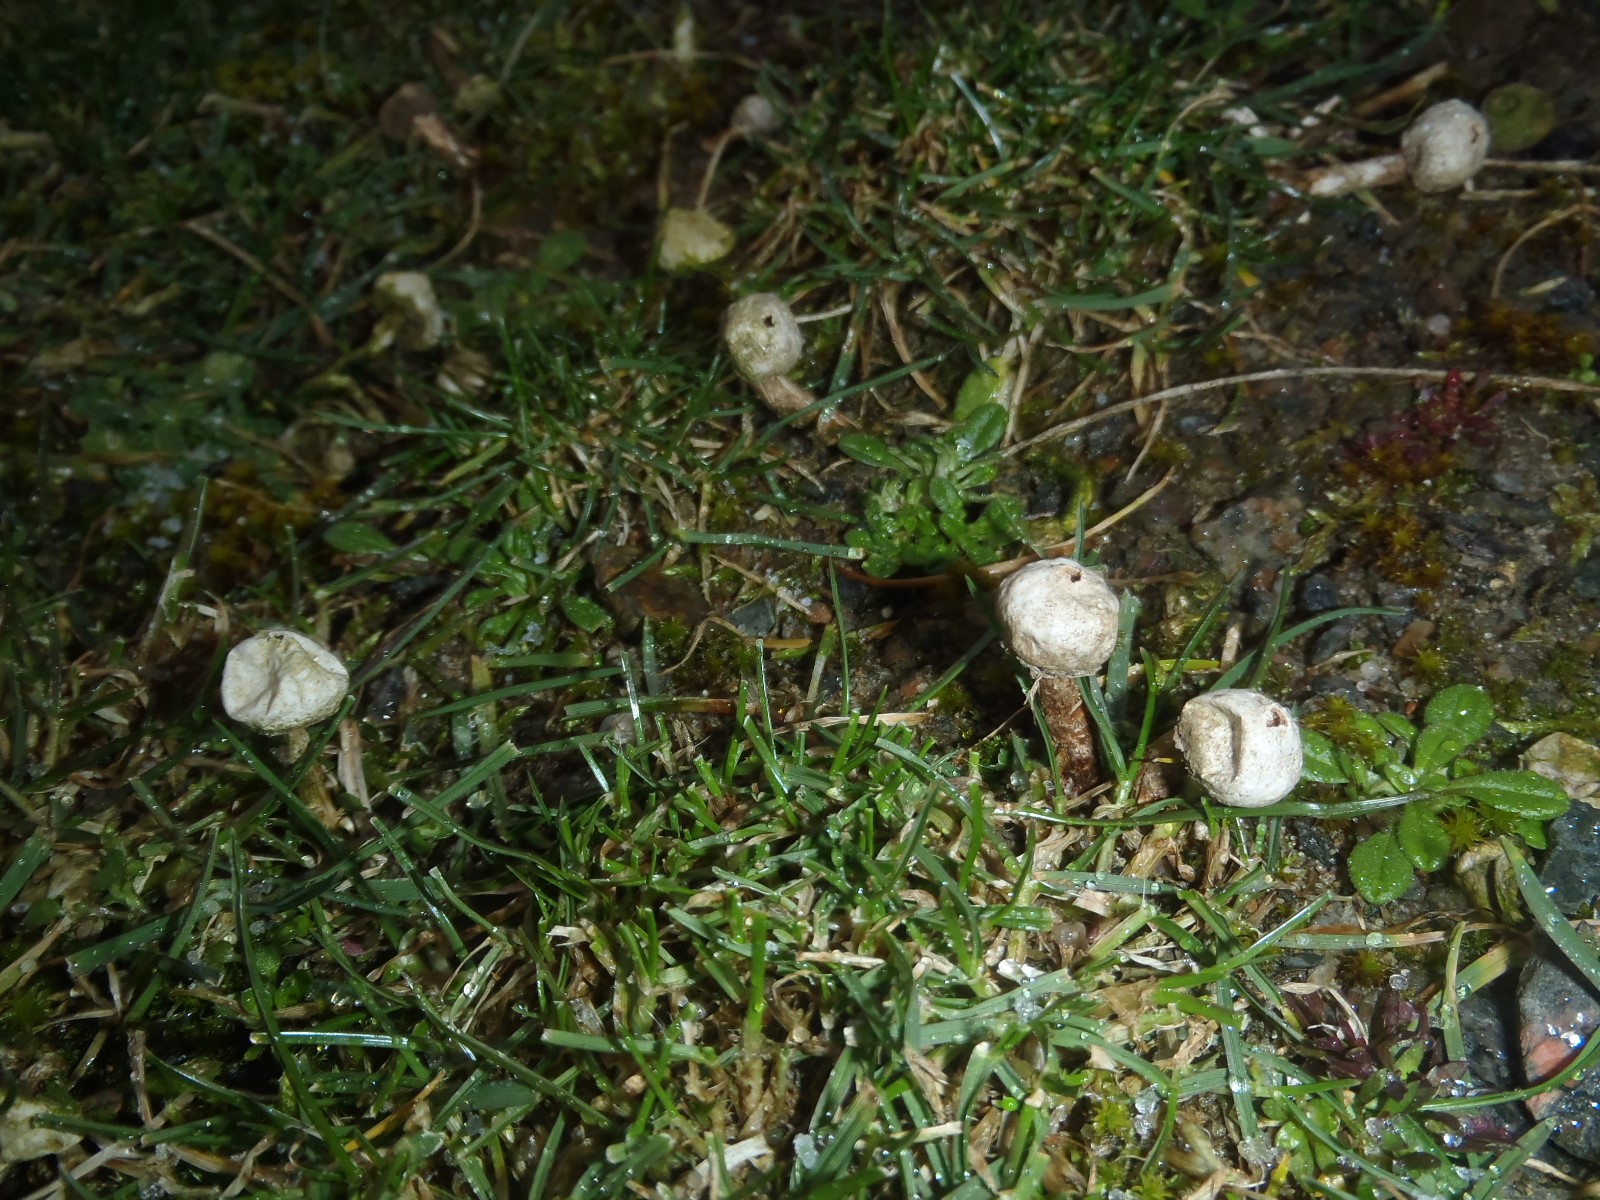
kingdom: Fungi
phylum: Basidiomycota
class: Agaricomycetes
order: Agaricales
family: Agaricaceae
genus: Tulostoma
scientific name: Tulostoma fimbriatum
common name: frynset stilkbovist
